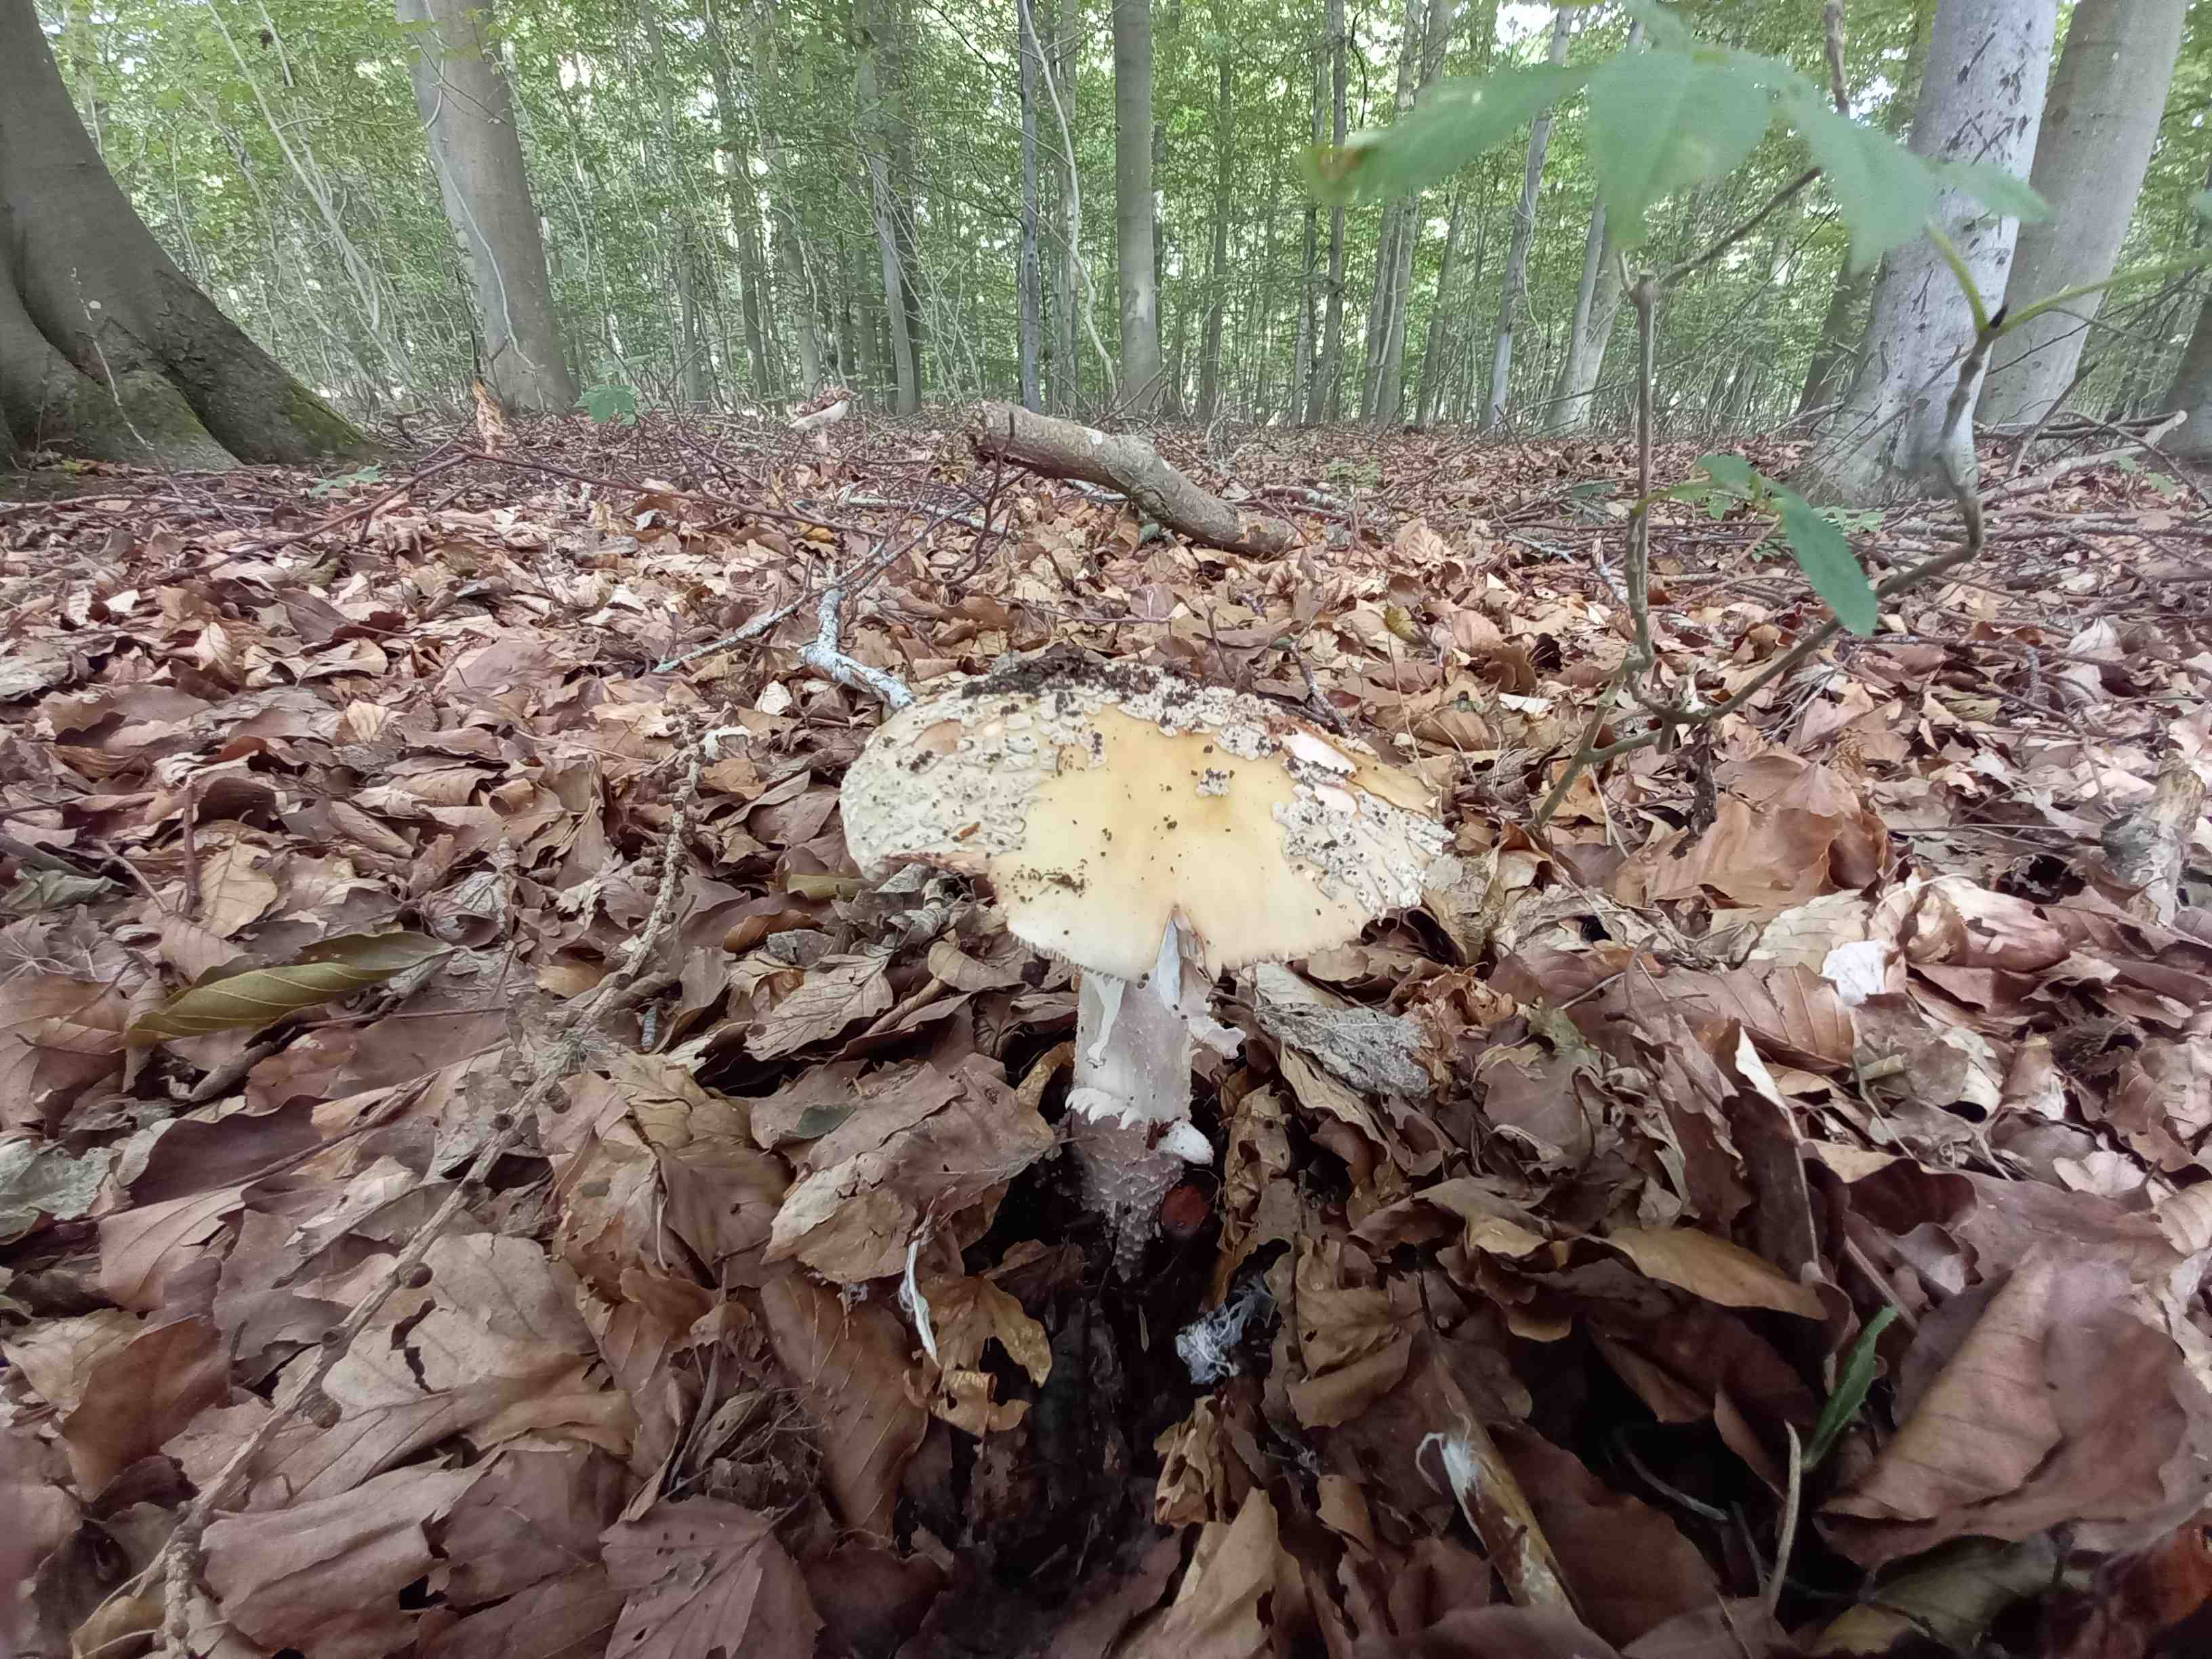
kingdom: Fungi
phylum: Basidiomycota
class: Agaricomycetes
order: Agaricales
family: Amanitaceae
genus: Amanita
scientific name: Amanita rubescens
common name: rødmende fluesvamp
